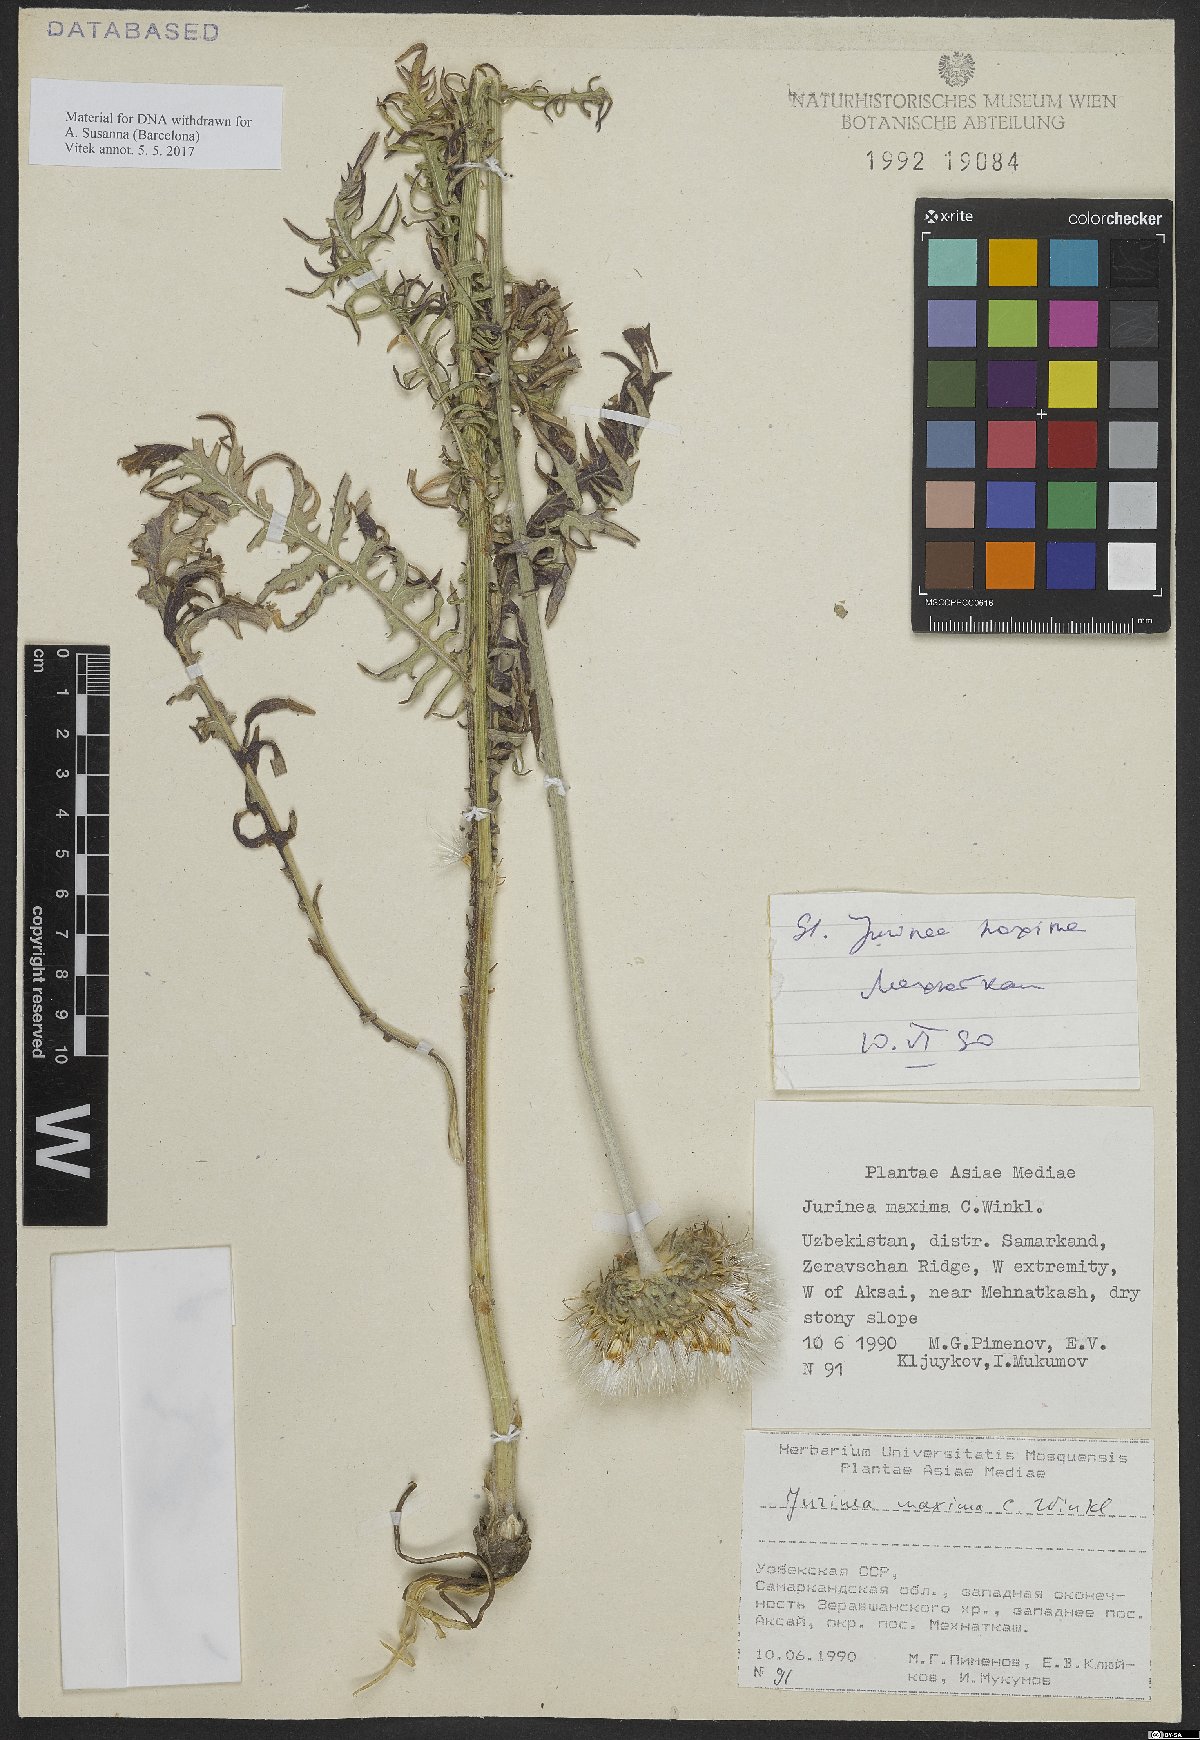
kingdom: Plantae
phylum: Tracheophyta
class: Magnoliopsida
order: Asterales
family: Asteraceae
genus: Jurinea
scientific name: Jurinea maxima
